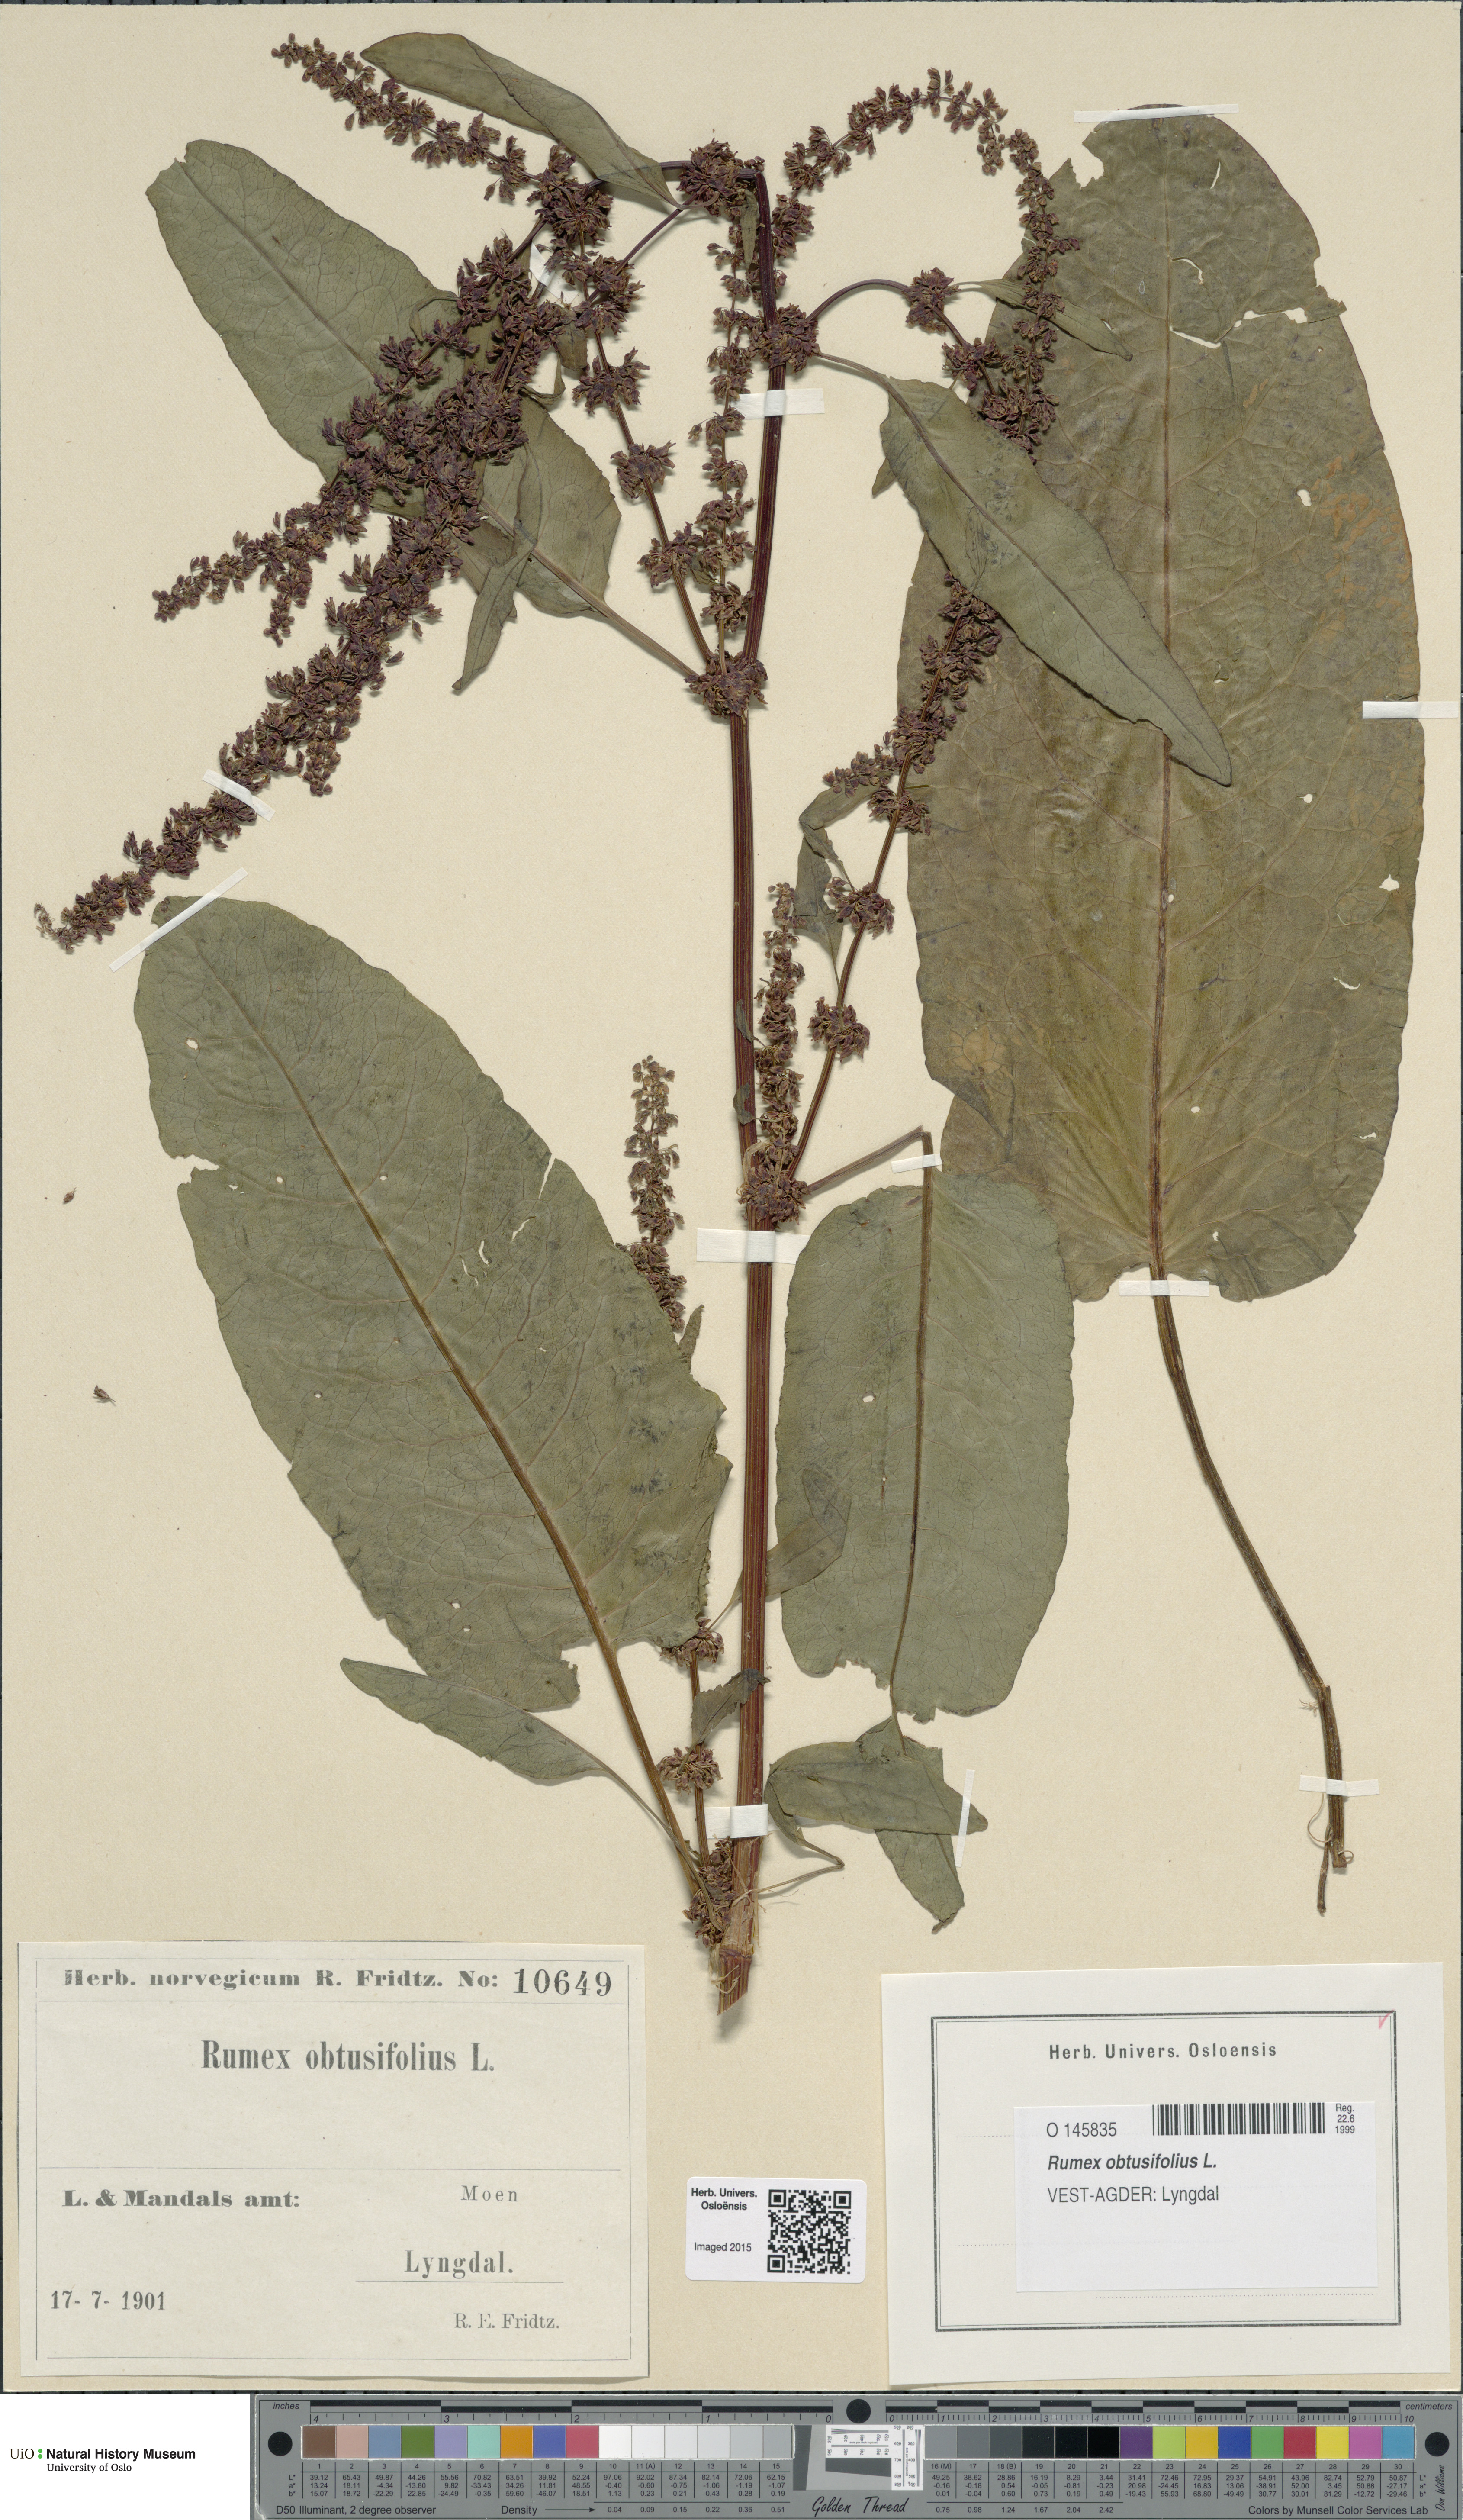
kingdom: Plantae
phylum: Tracheophyta
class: Magnoliopsida
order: Caryophyllales
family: Polygonaceae
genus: Rumex
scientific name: Rumex obtusifolius
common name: Bitter dock
